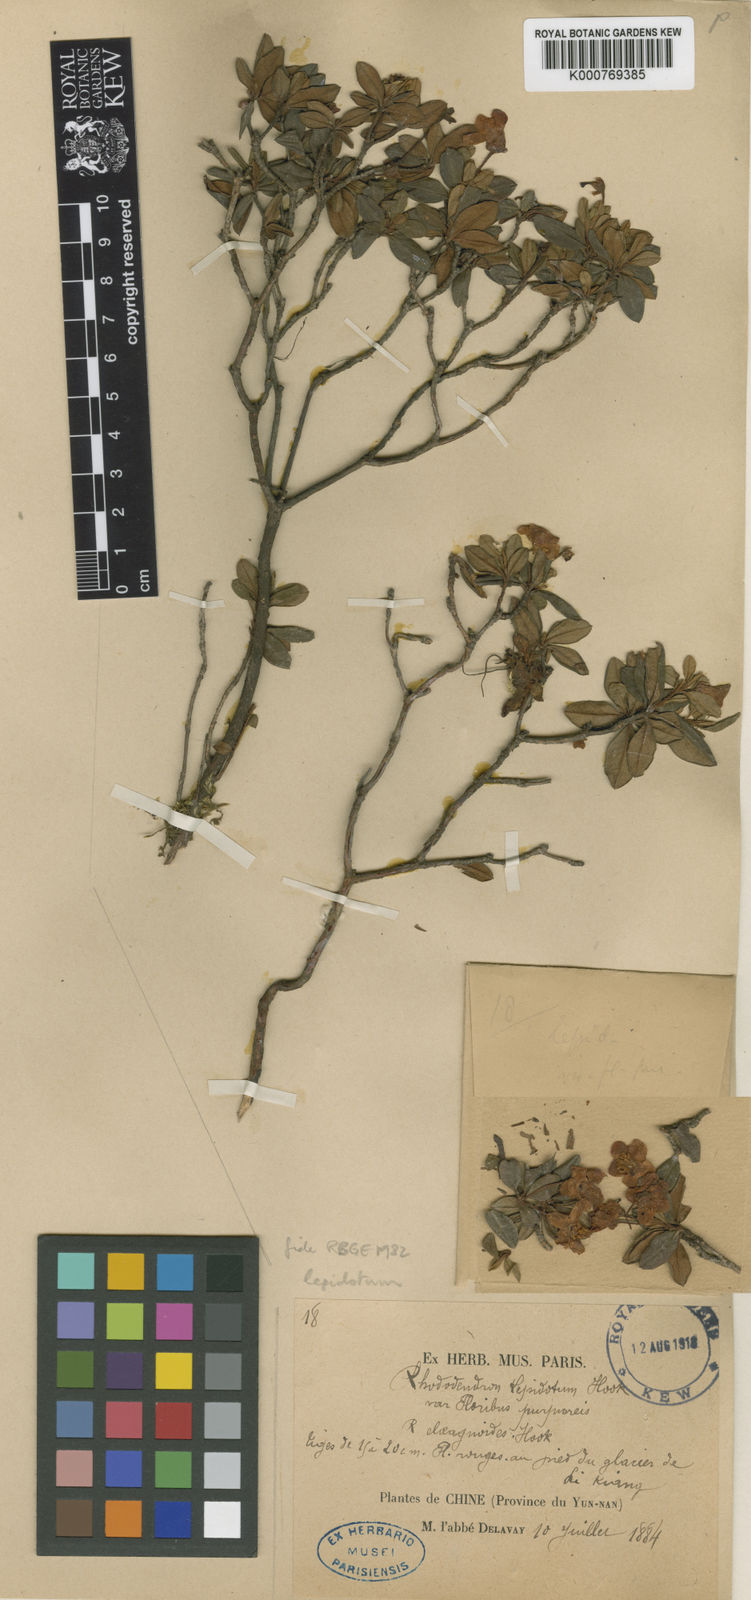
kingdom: Plantae
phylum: Tracheophyta
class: Magnoliopsida
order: Ericales
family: Ericaceae
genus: Rhododendron
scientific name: Rhododendron lepidotum
